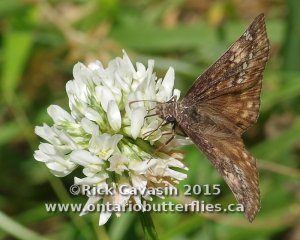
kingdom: Animalia
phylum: Arthropoda
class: Insecta
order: Lepidoptera
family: Hesperiidae
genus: Gesta
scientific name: Gesta
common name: Juvenal's Duskywing
